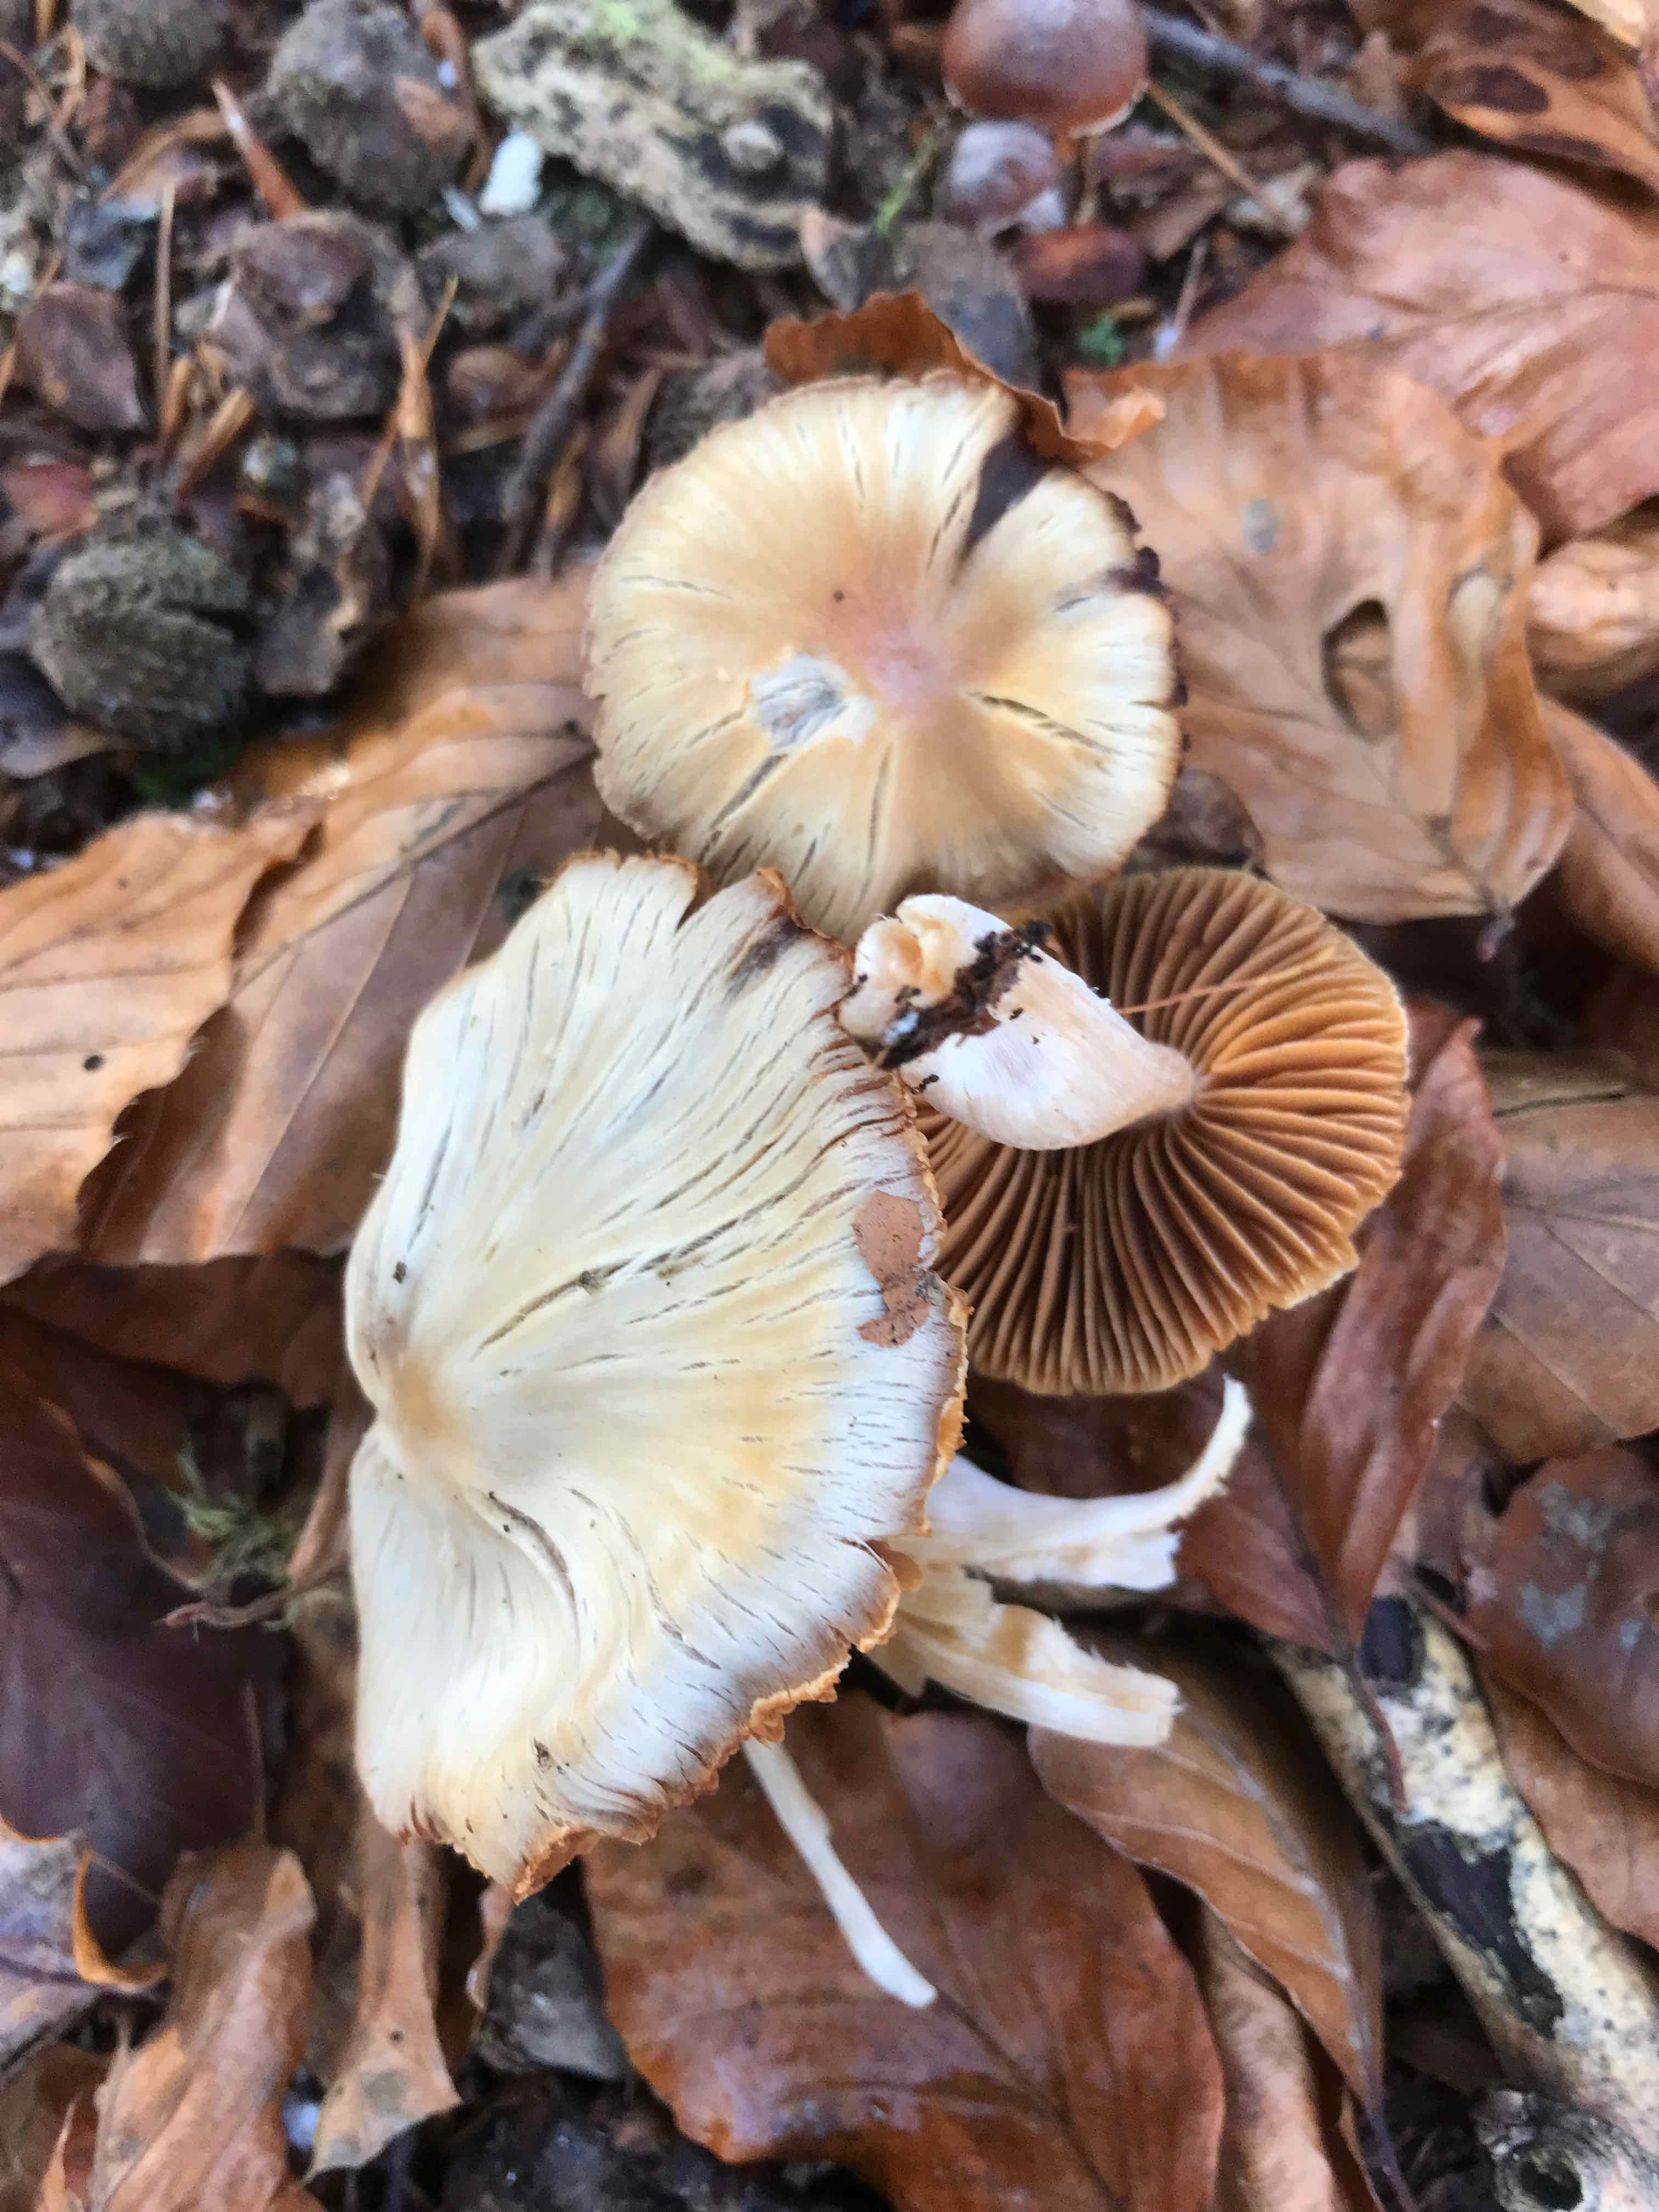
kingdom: Fungi
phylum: Basidiomycota
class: Agaricomycetes
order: Agaricales
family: Cortinariaceae
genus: Cortinarius
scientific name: Cortinarius
